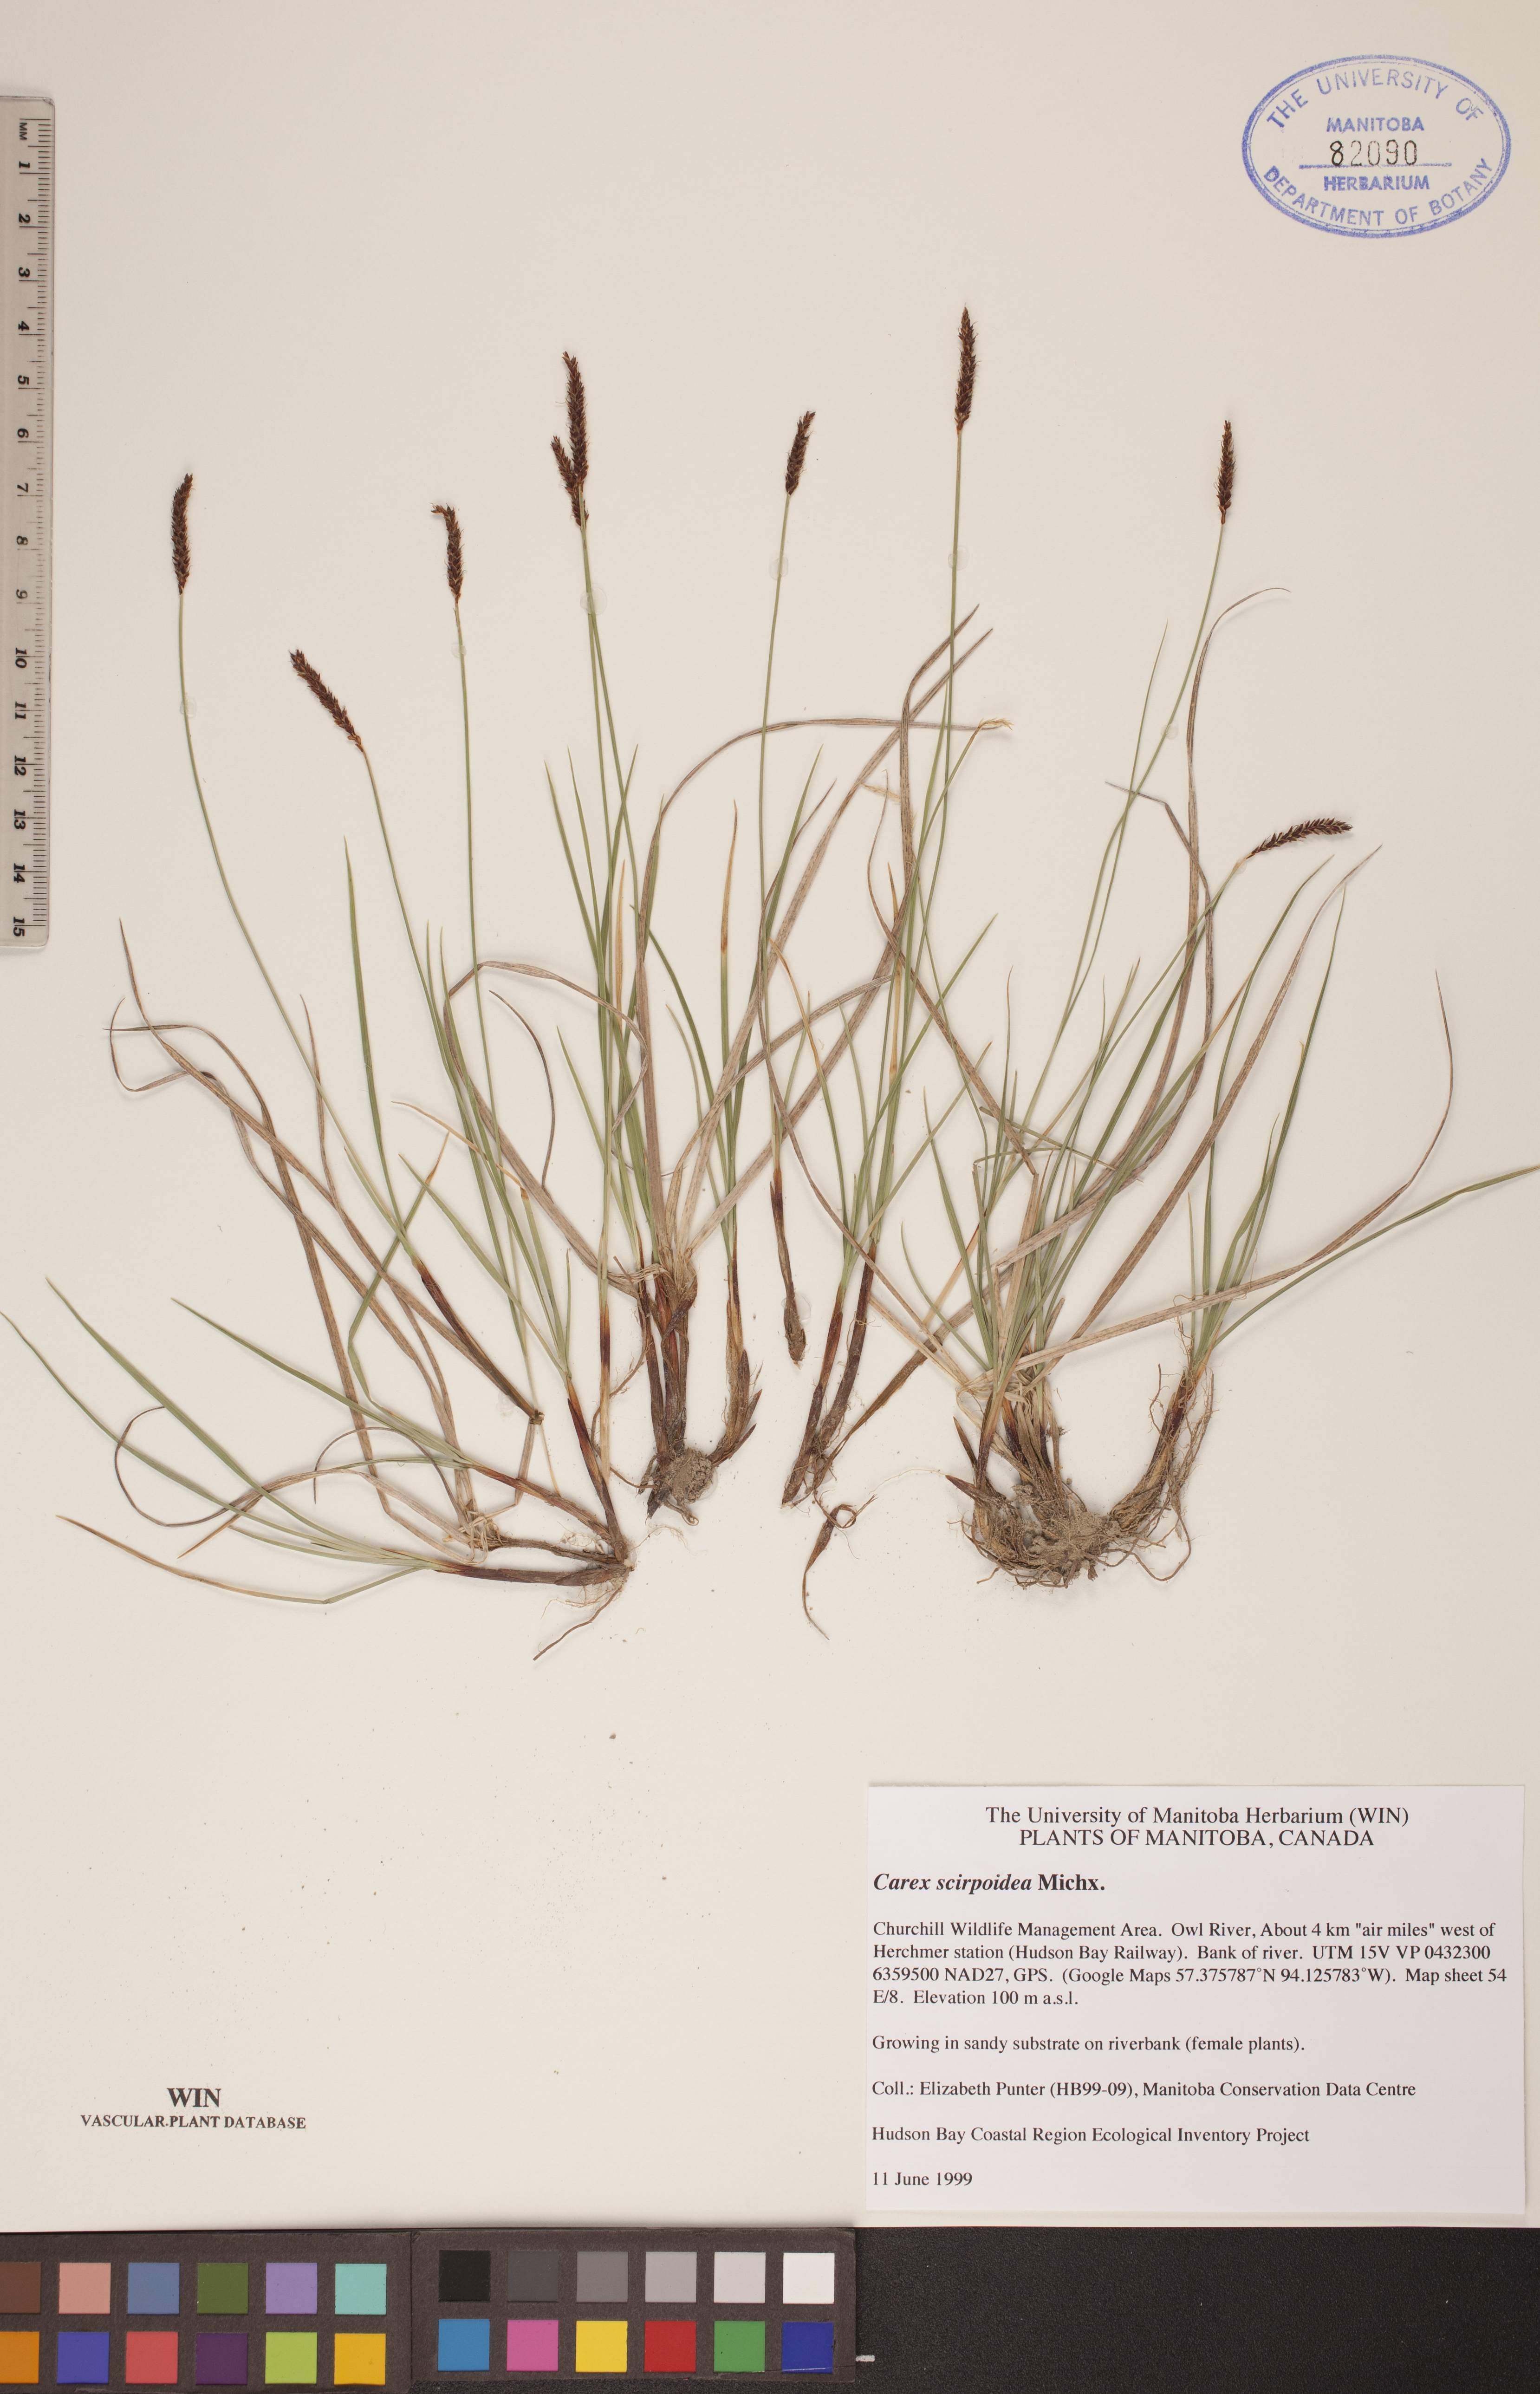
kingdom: Plantae
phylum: Tracheophyta
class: Liliopsida
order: Poales
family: Cyperaceae
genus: Carex
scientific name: Carex scirpoidea
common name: Canada single-spike sedge
